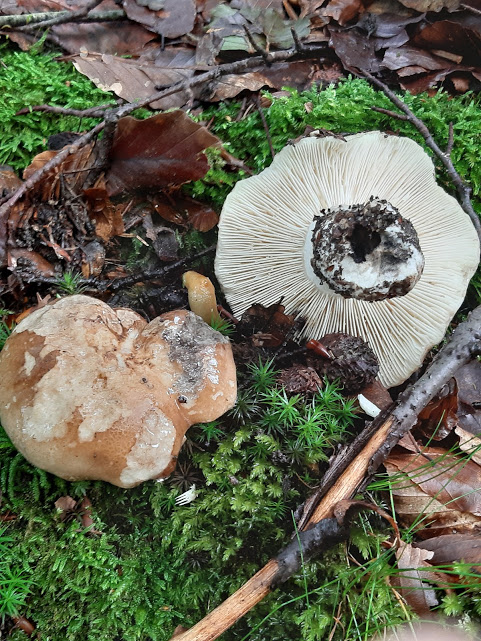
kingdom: Fungi
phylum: Basidiomycota
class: Agaricomycetes
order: Russulales
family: Russulaceae
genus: Russula
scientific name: Russula
